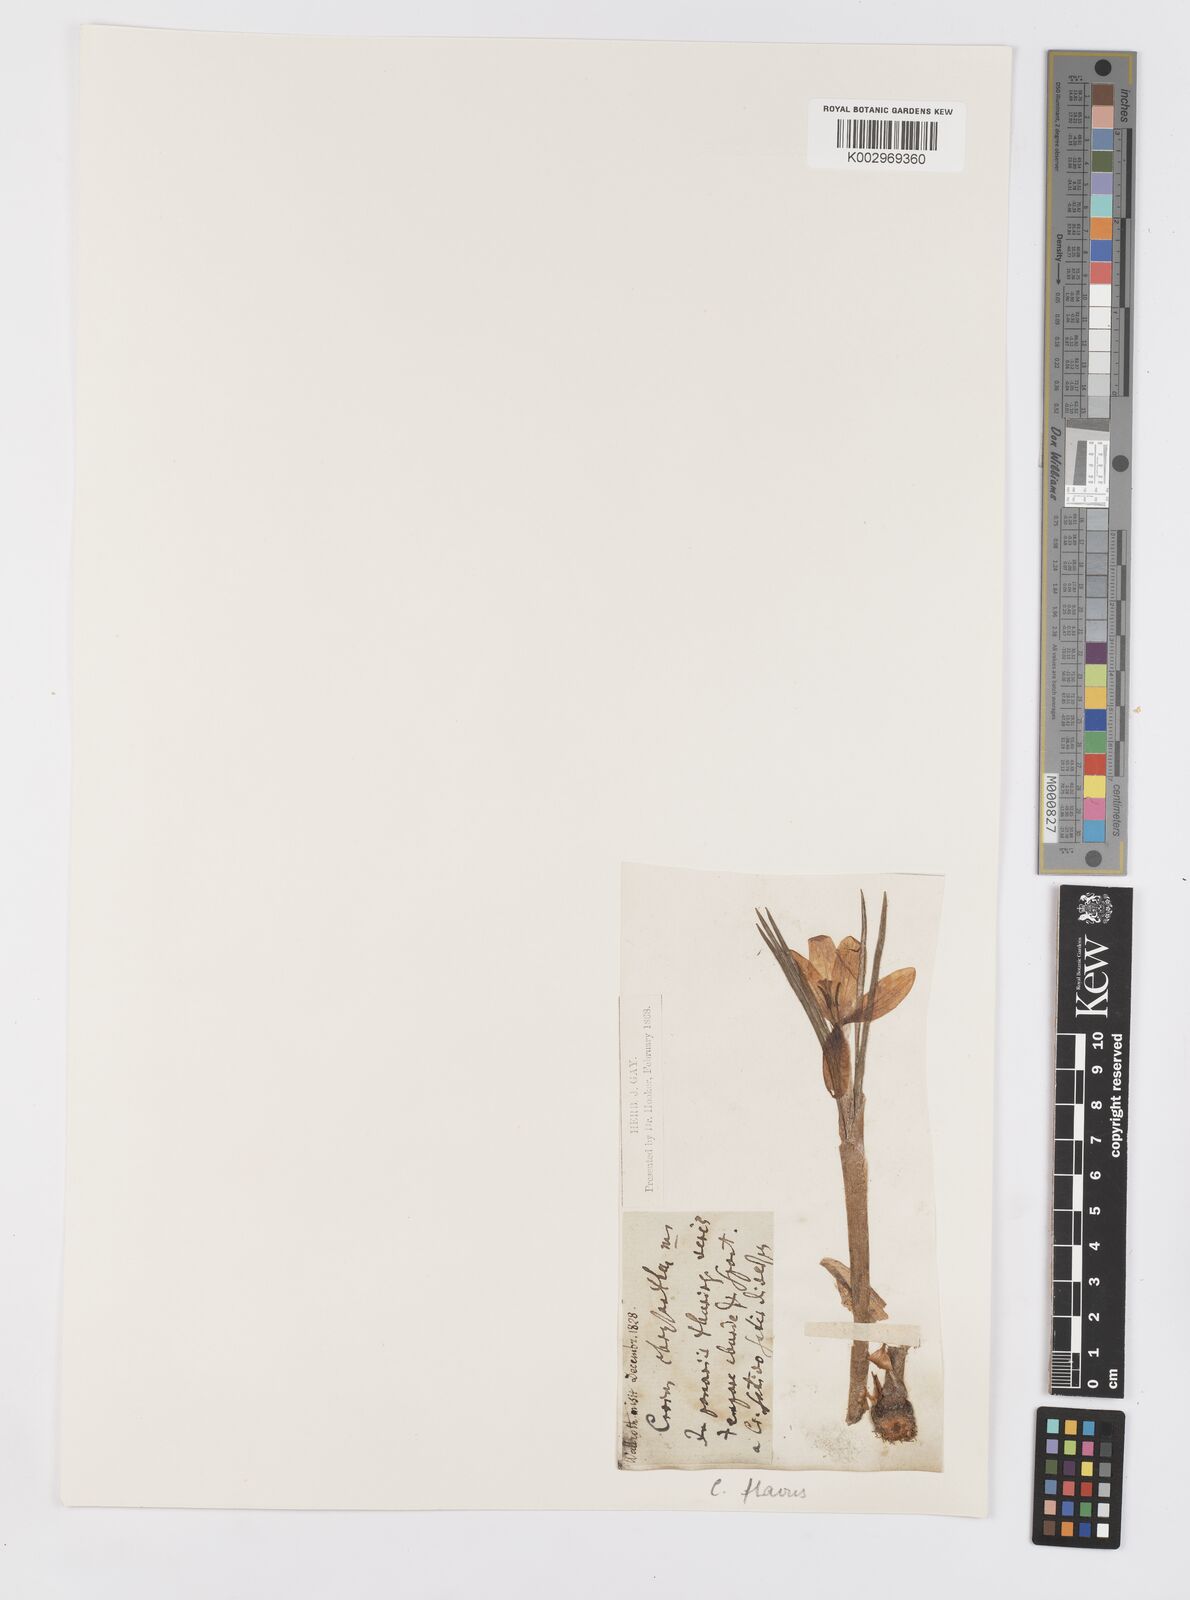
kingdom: Plantae
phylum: Tracheophyta
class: Liliopsida
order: Asparagales
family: Iridaceae
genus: Crocus
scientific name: Crocus flavus
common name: Yellow crocus
